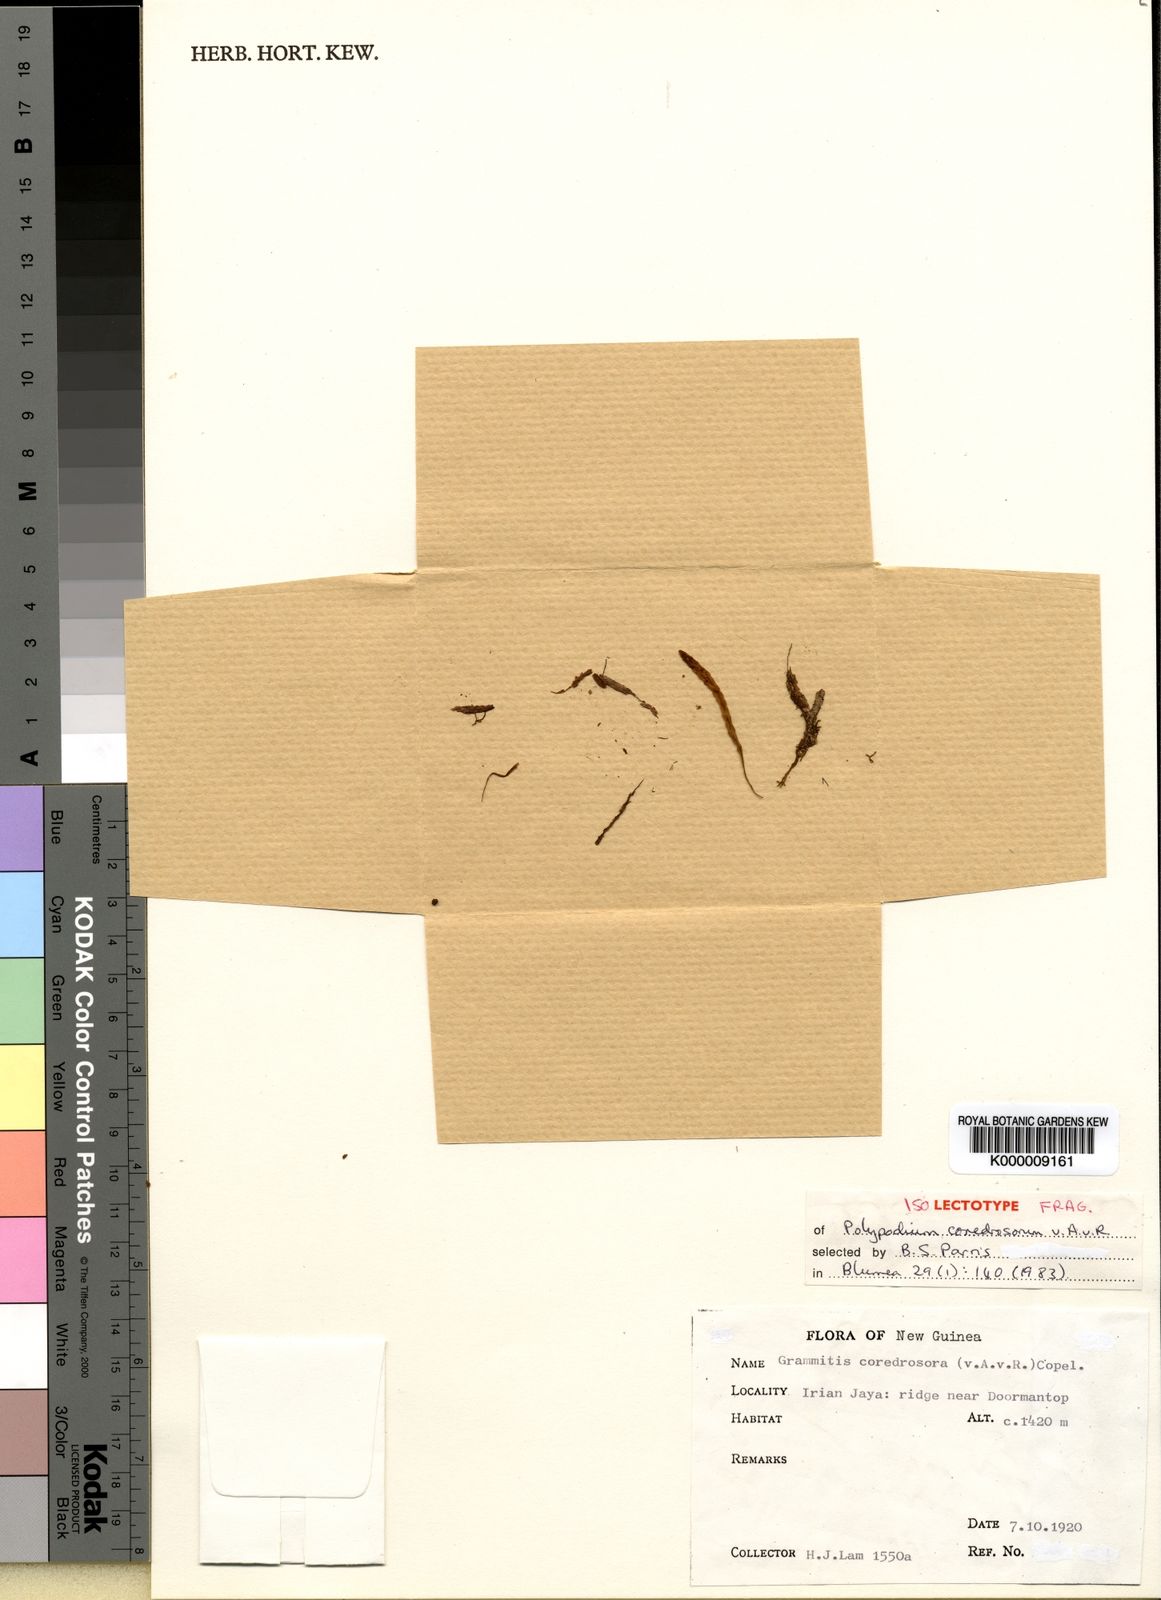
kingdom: Plantae
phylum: Tracheophyta
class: Polypodiopsida
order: Polypodiales
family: Polypodiaceae
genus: Oreogrammitis
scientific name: Oreogrammitis coredrosora
